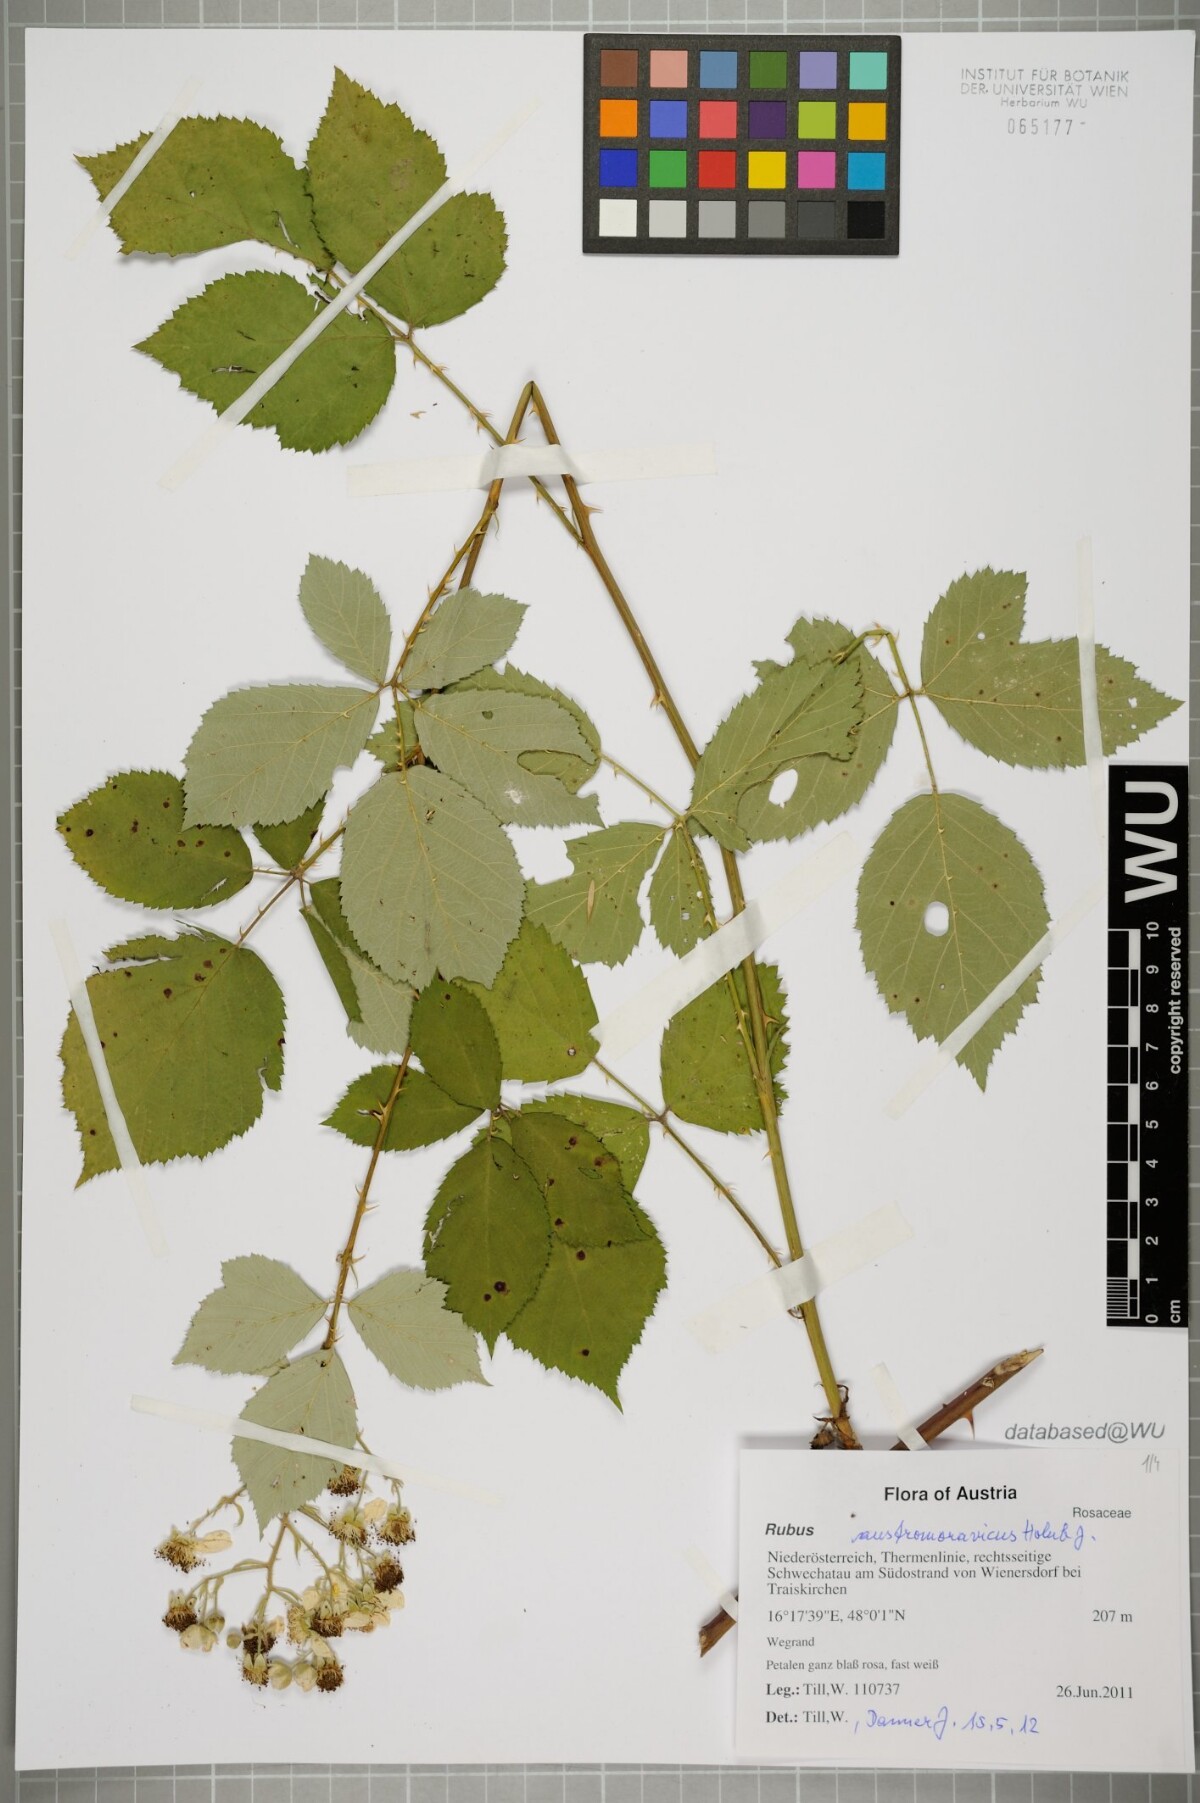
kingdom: Plantae
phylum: Tracheophyta
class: Magnoliopsida
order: Rosales
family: Rosaceae
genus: Rubus
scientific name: Rubus austromoravicus
